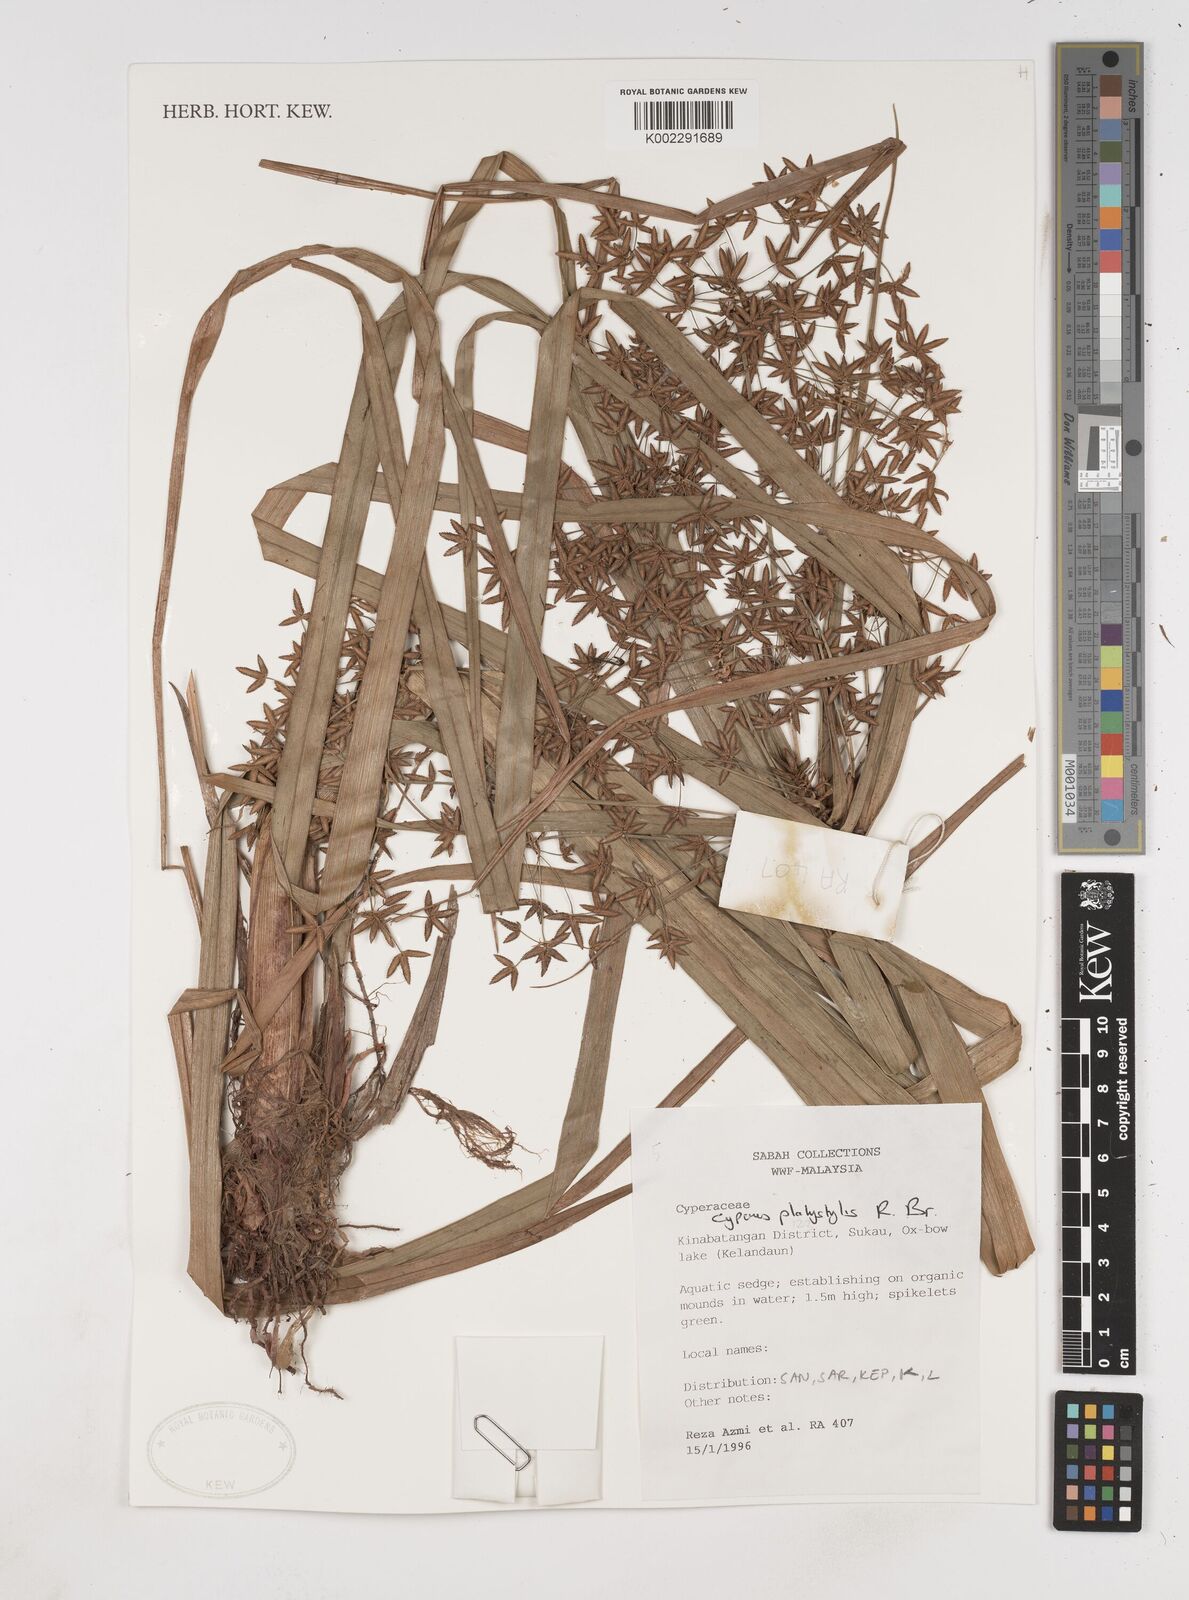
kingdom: Plantae
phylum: Tracheophyta
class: Liliopsida
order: Poales
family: Cyperaceae
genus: Cyperus
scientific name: Cyperus platystylis
